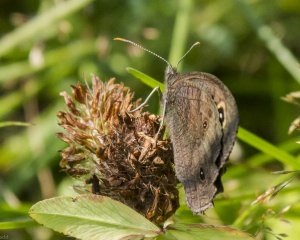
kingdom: Animalia
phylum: Arthropoda
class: Insecta
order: Lepidoptera
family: Nymphalidae
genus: Cercyonis
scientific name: Cercyonis pegala
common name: Common Wood-Nymph
